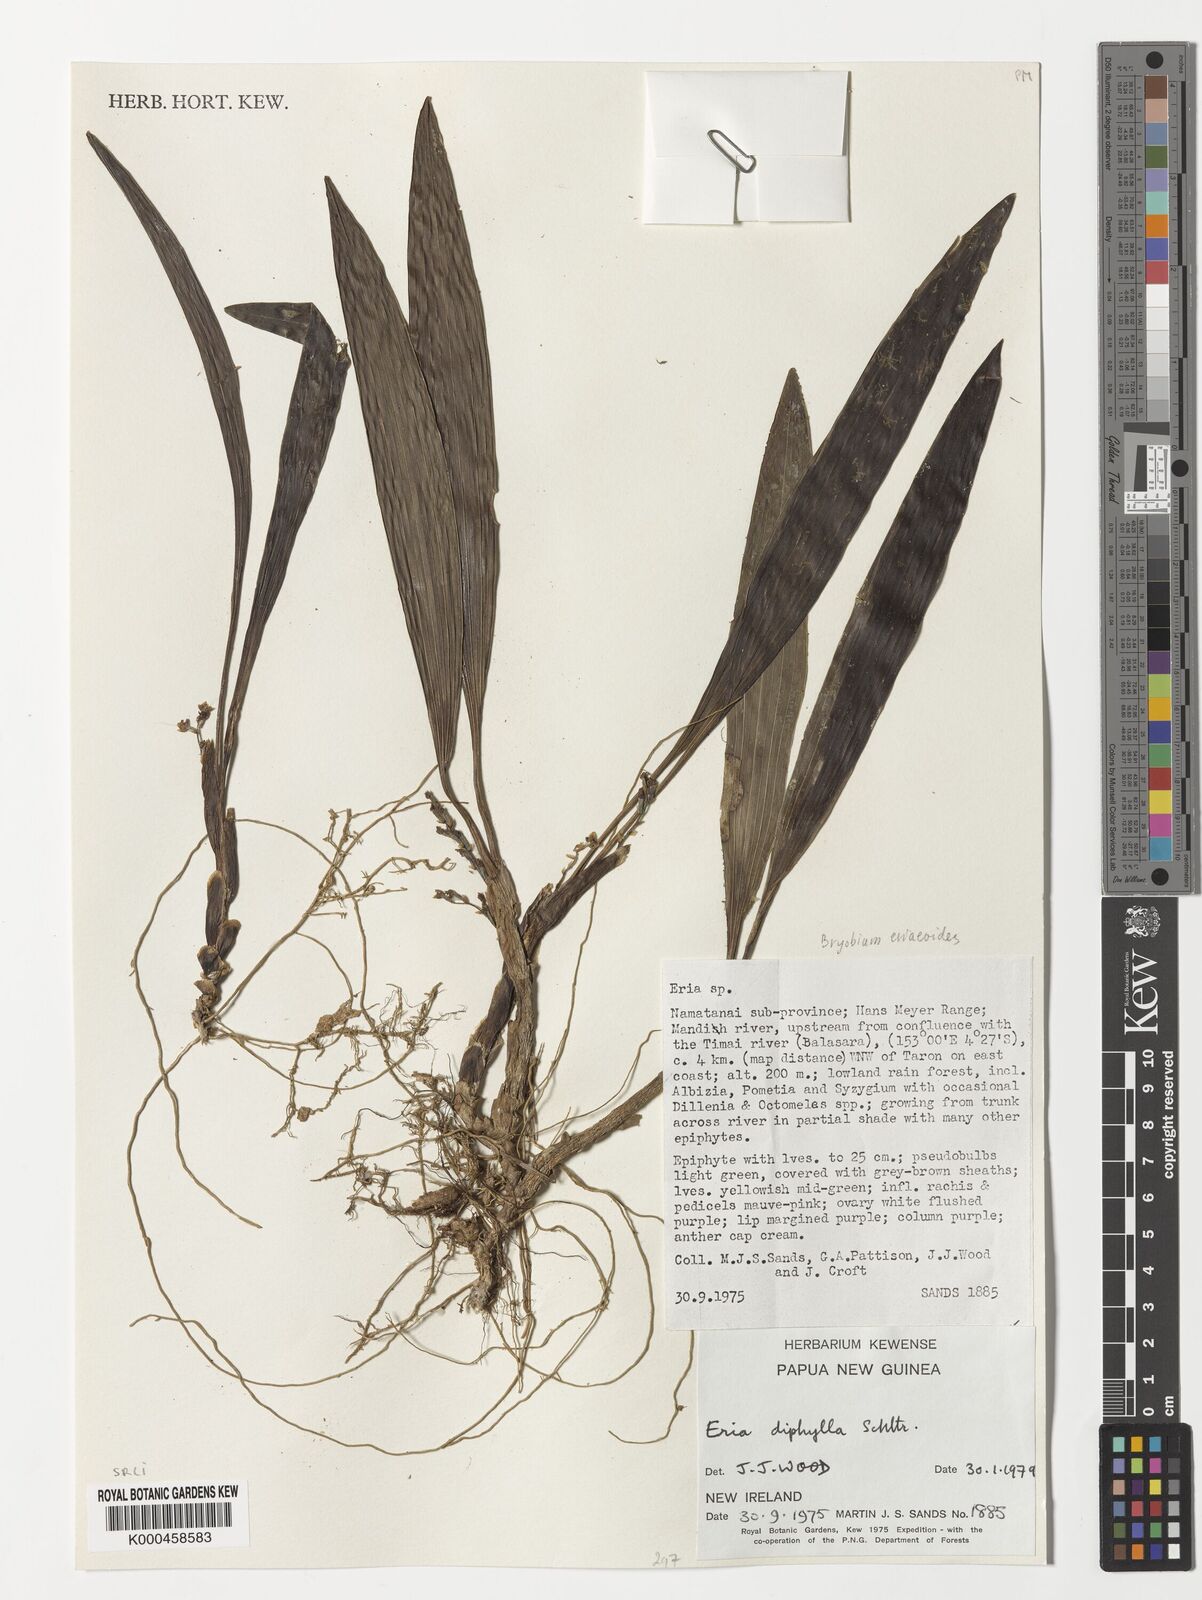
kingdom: Plantae
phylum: Tracheophyta
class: Liliopsida
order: Asparagales
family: Orchidaceae
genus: Bryobium
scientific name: Bryobium eriaeoides
